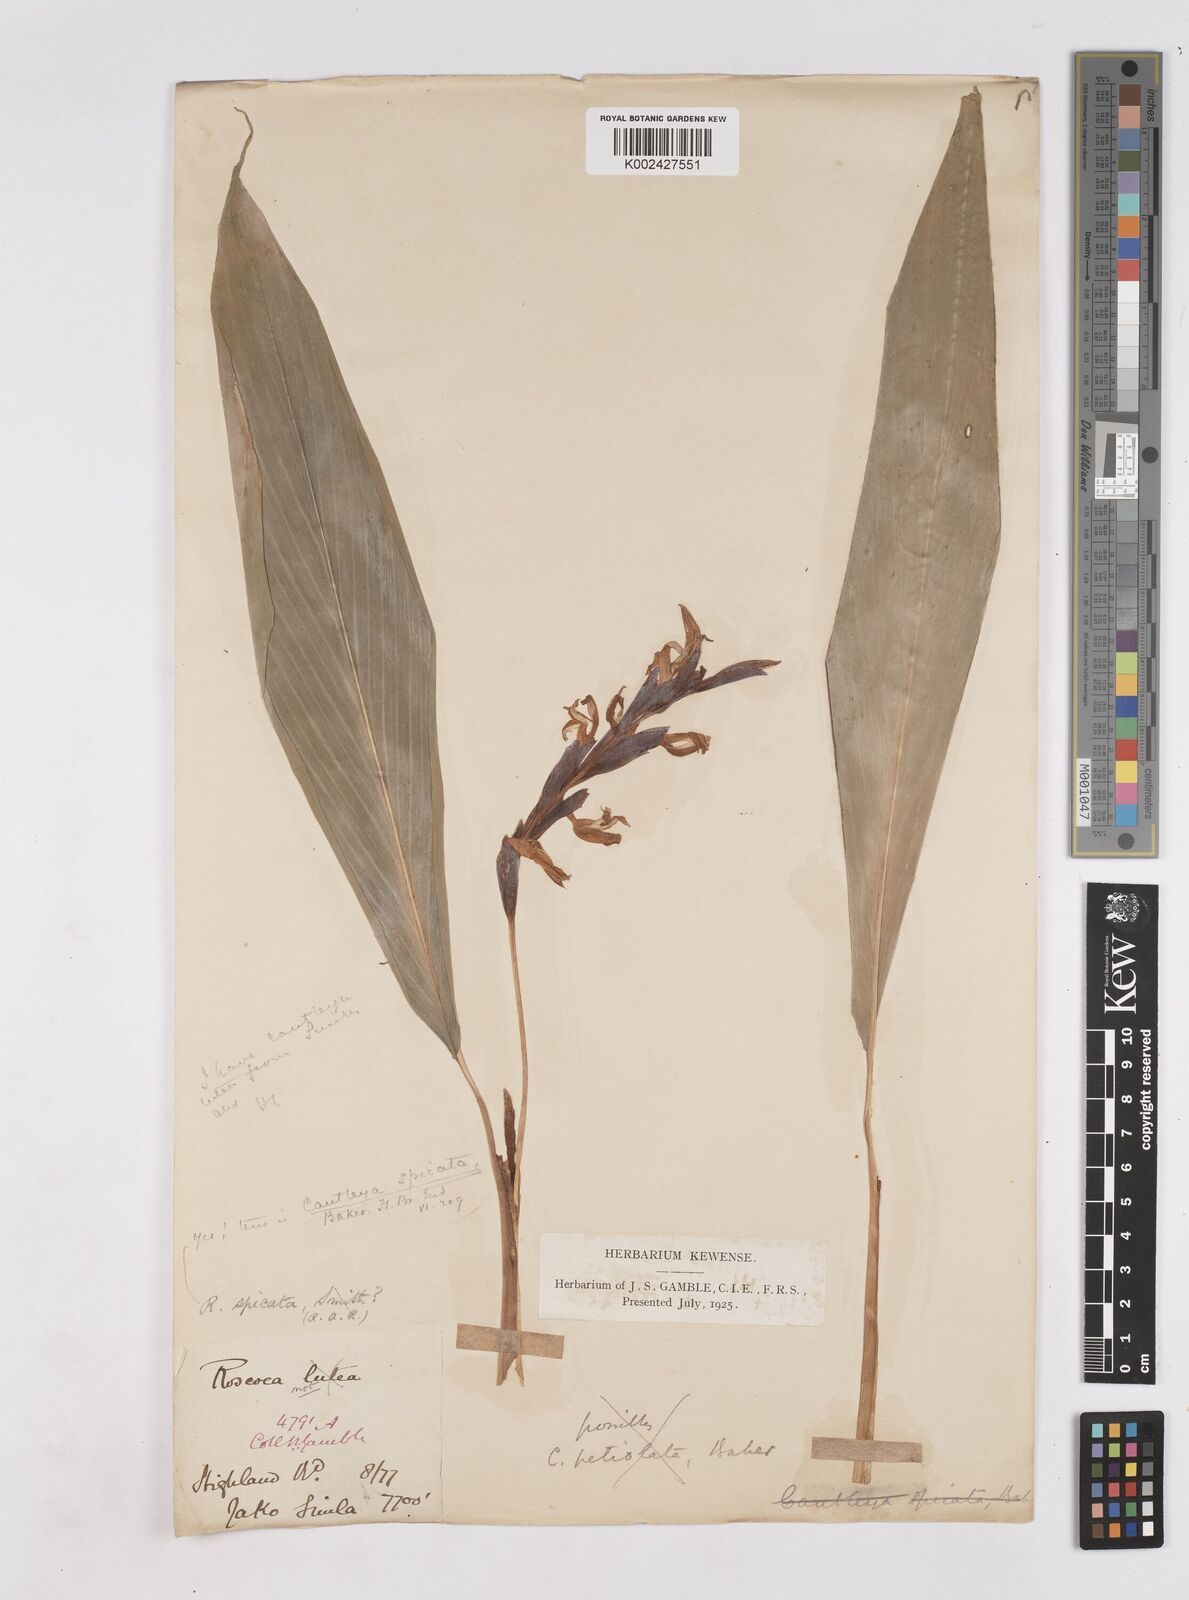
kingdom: Plantae
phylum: Tracheophyta
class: Liliopsida
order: Zingiberales
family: Zingiberaceae
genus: Cautleya
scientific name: Cautleya spicata
